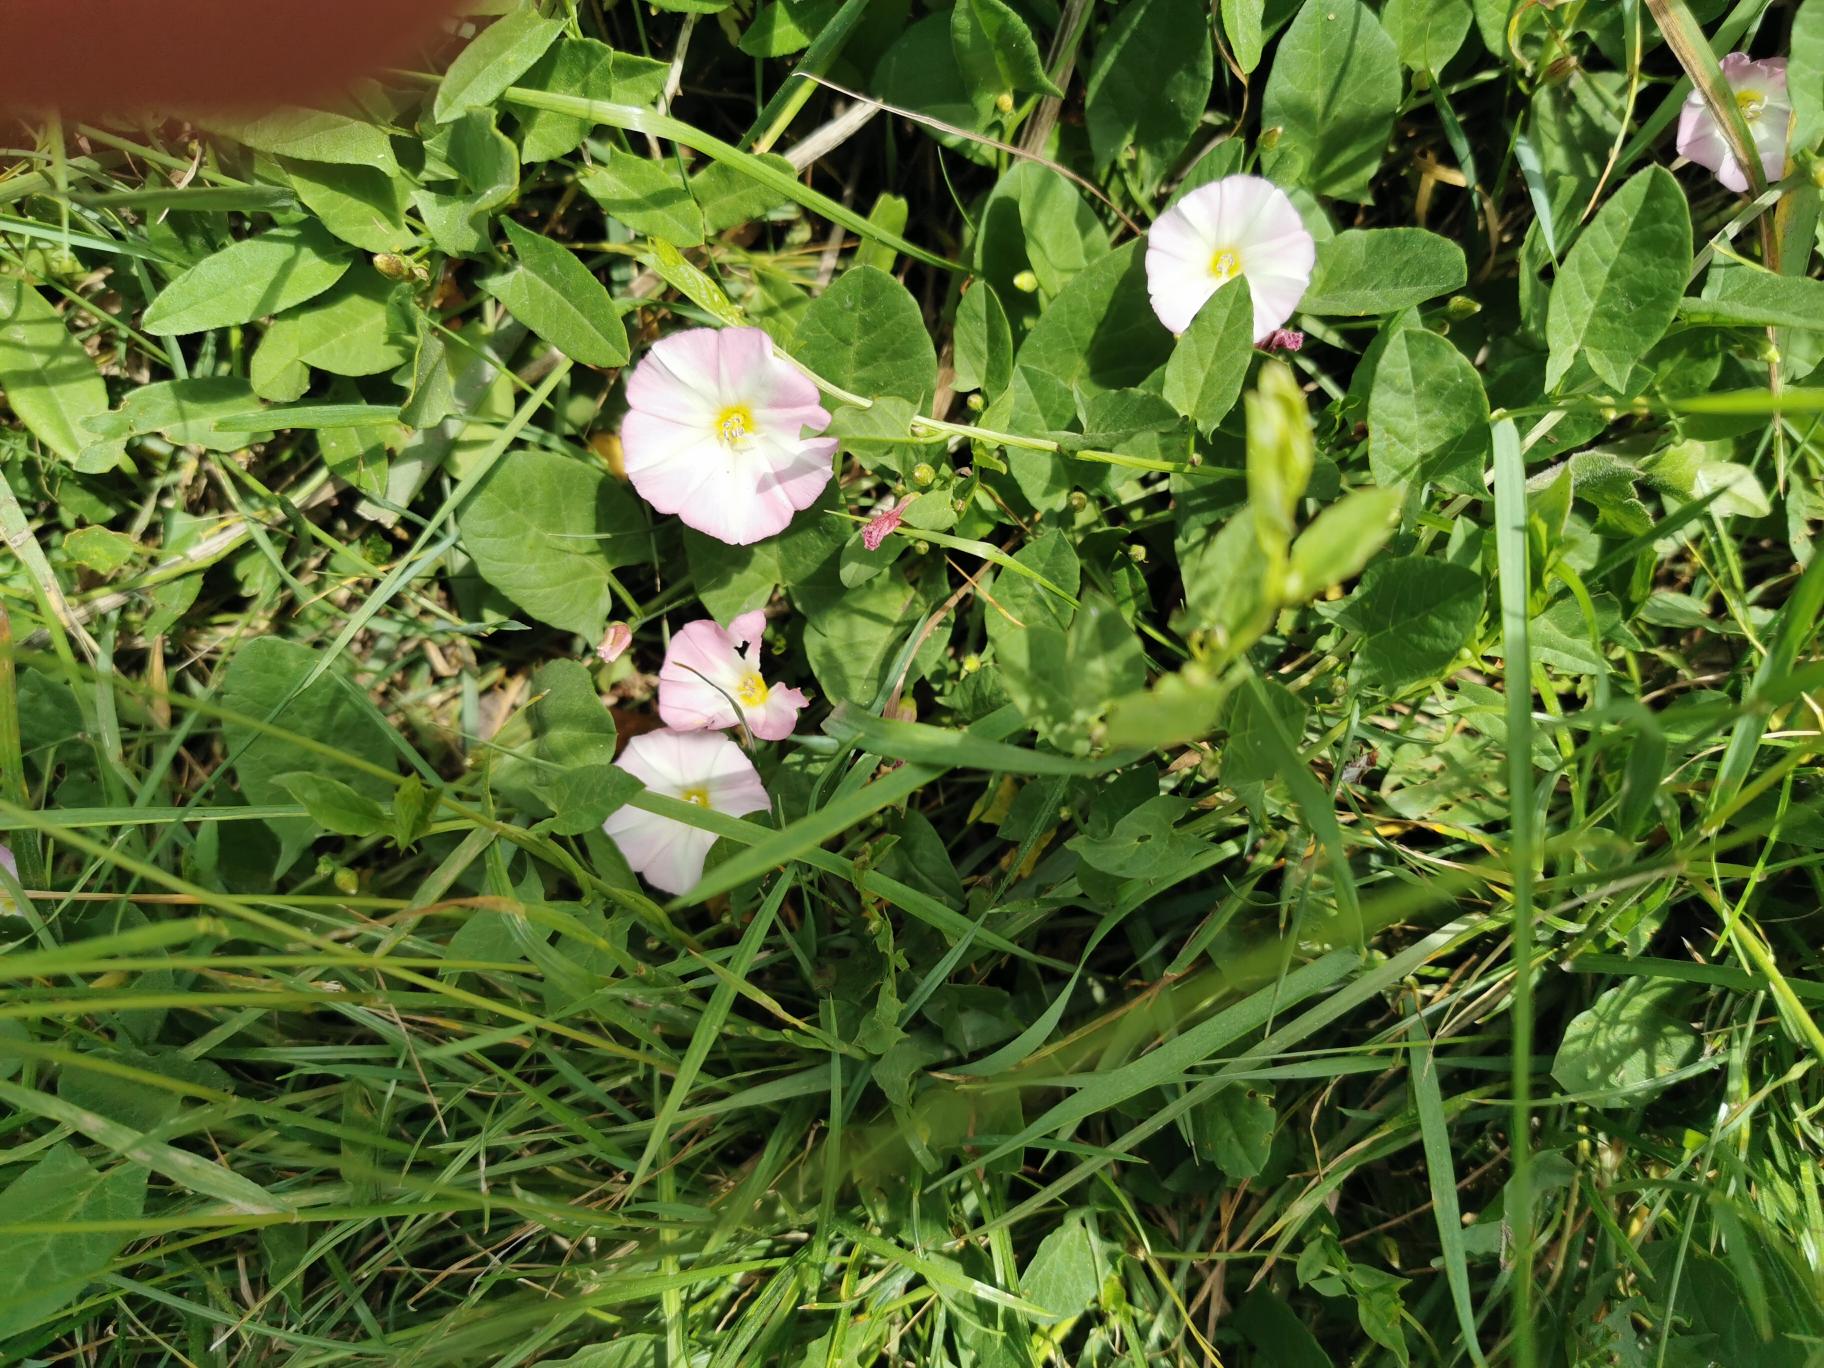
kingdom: Plantae
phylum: Tracheophyta
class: Magnoliopsida
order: Solanales
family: Convolvulaceae
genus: Convolvulus
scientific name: Convolvulus arvensis
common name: Ager-snerle
